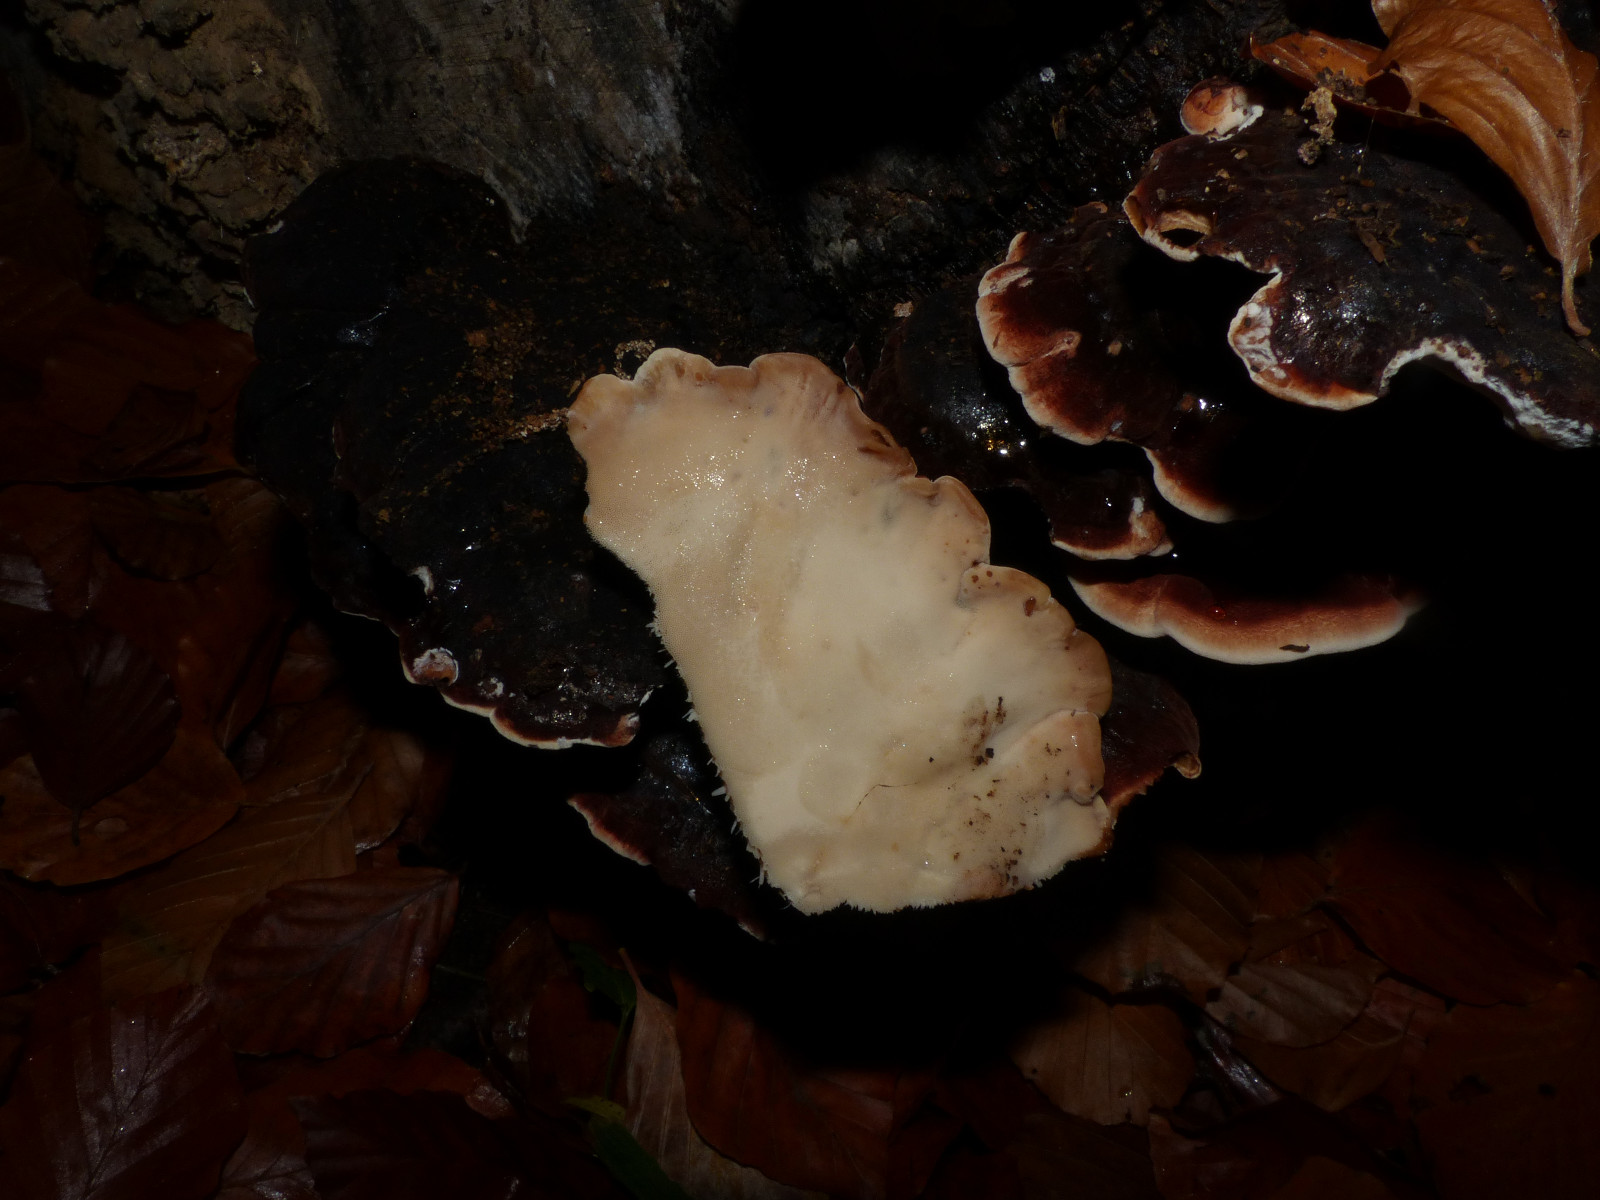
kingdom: Fungi
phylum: Basidiomycota
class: Agaricomycetes
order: Polyporales
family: Ischnodermataceae
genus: Ischnoderma
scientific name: Ischnoderma resinosum
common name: løv-tjæreporesvamp
